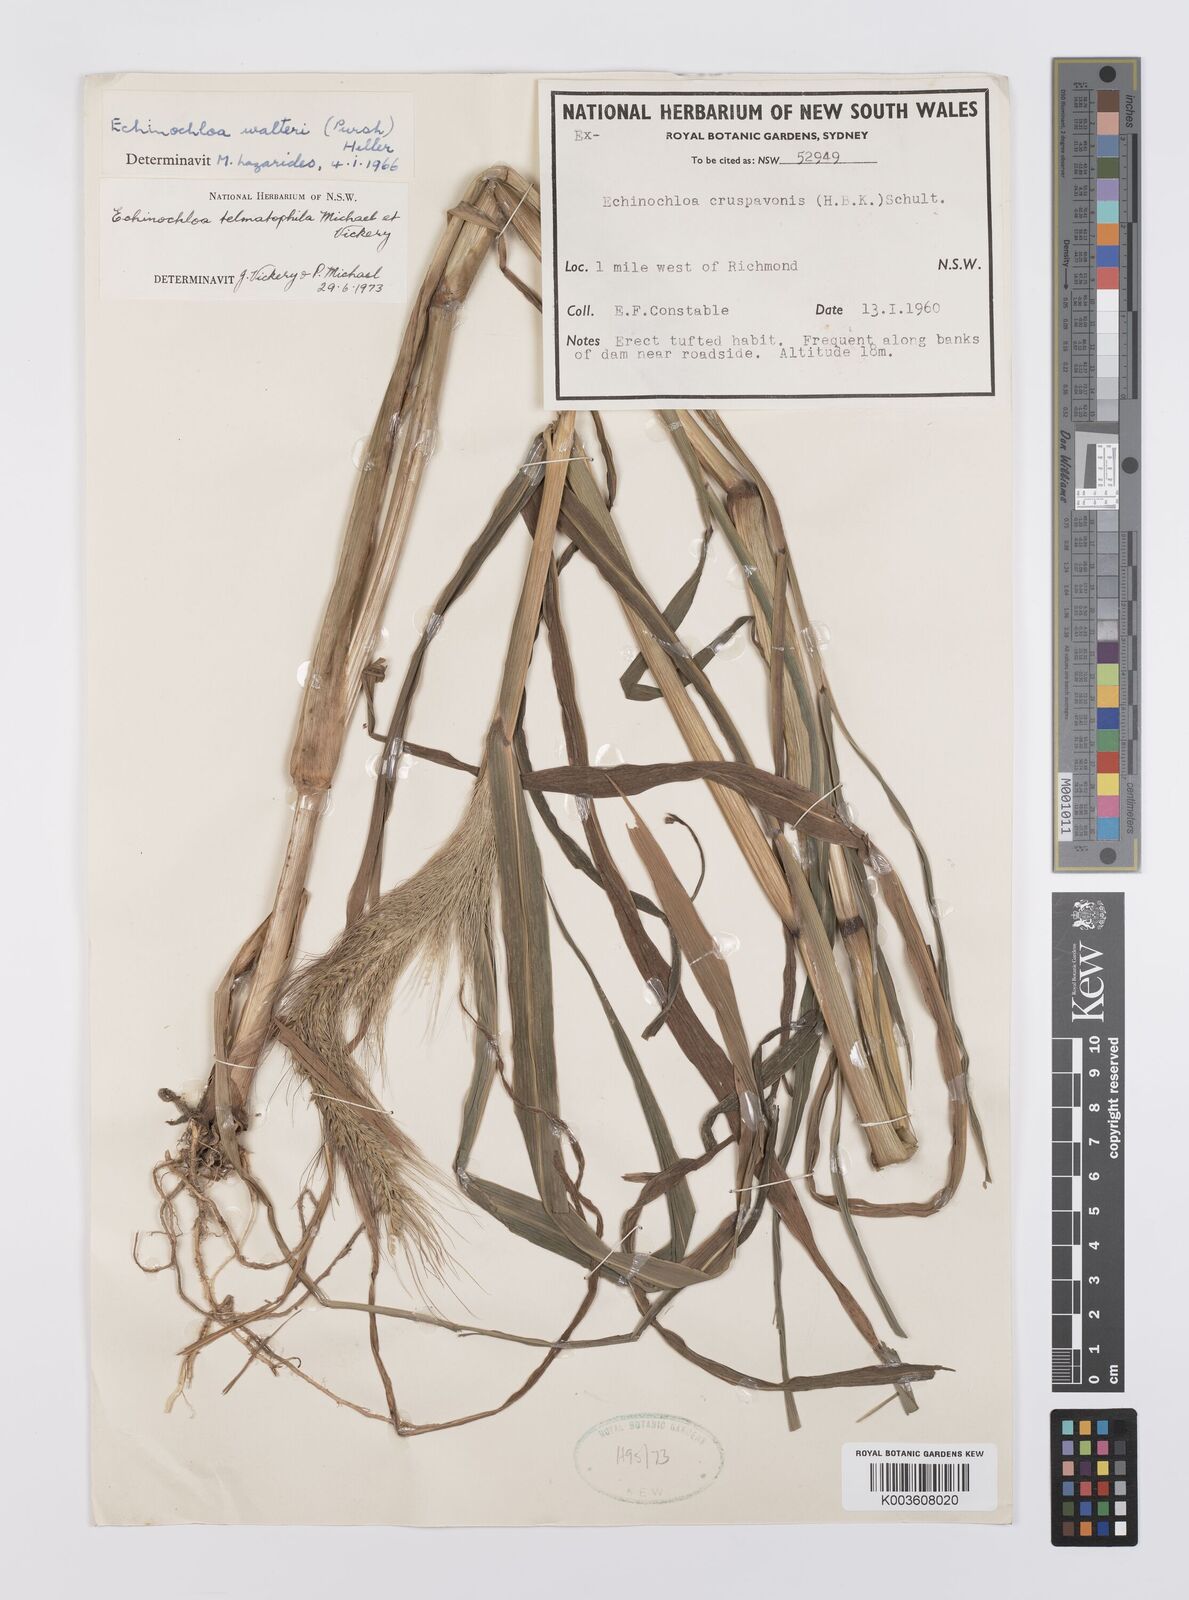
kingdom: Plantae
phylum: Tracheophyta
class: Liliopsida
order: Poales
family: Poaceae
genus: Echinochloa
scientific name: Echinochloa crus-galli
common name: Cockspur
